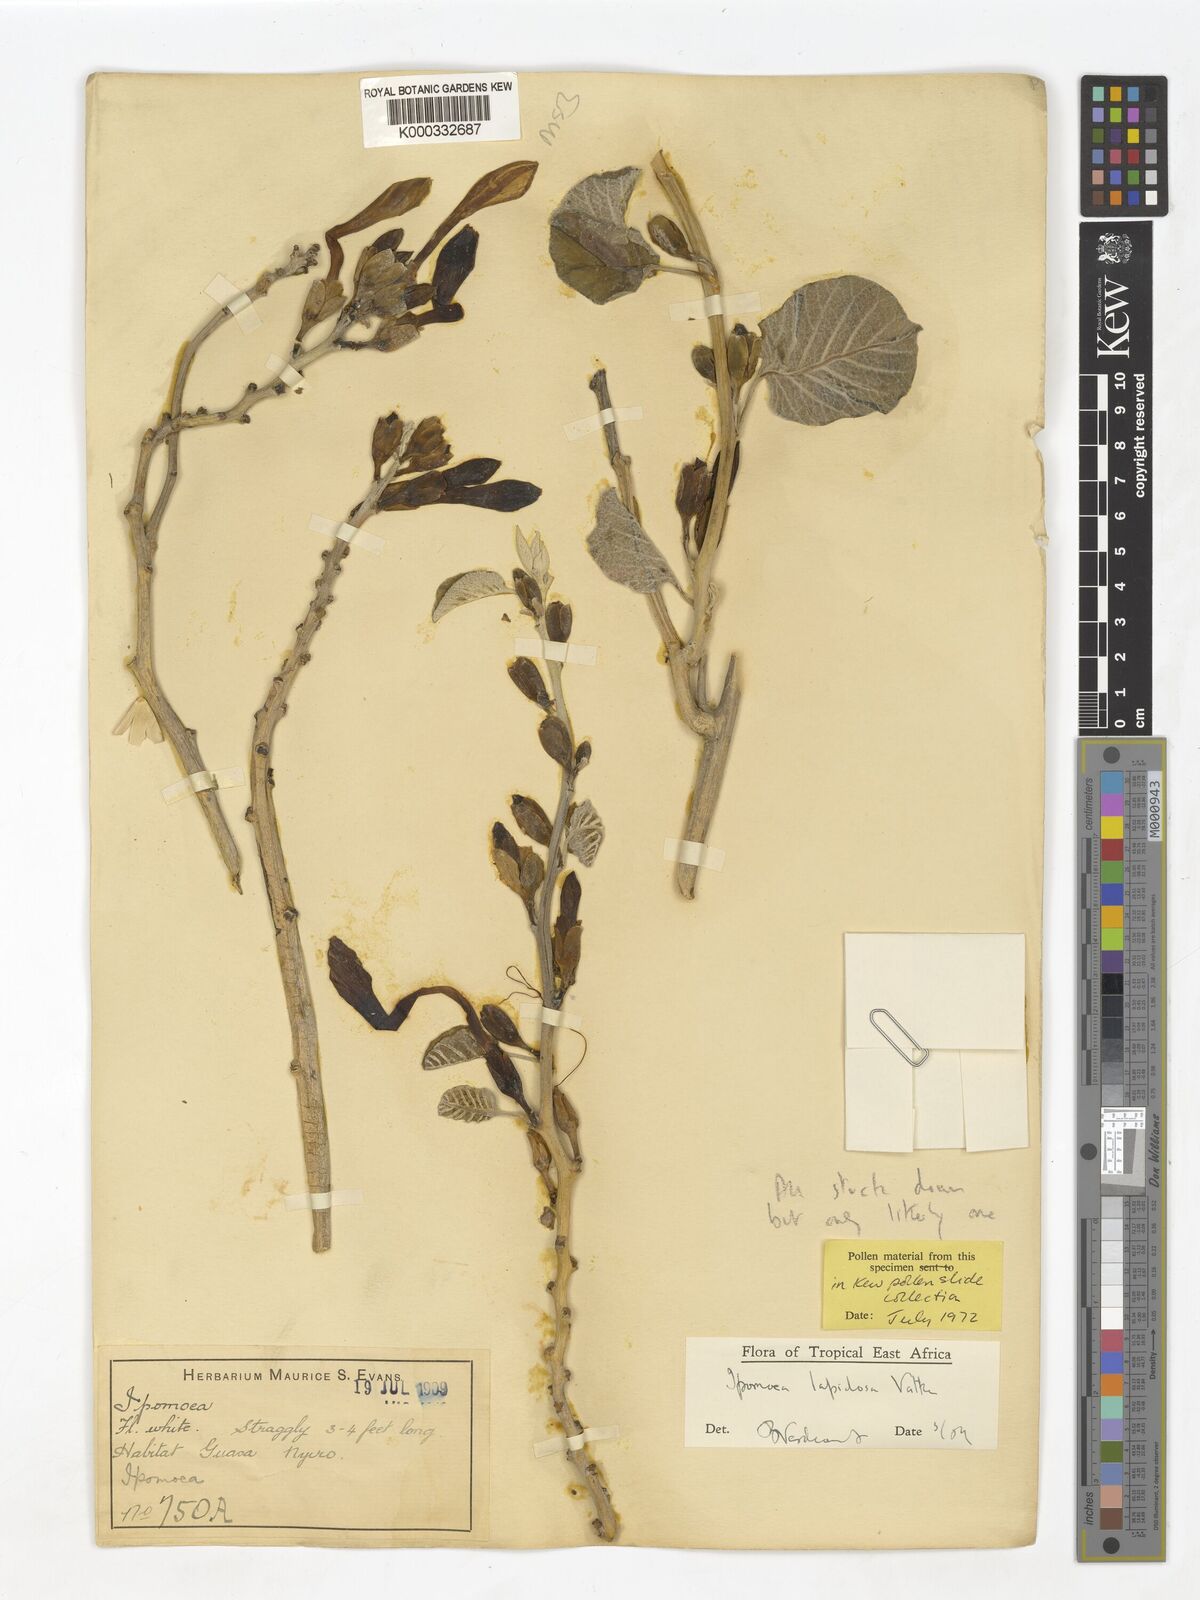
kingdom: Plantae
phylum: Tracheophyta
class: Magnoliopsida
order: Solanales
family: Convolvulaceae
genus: Ipomoea
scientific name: Ipomoea lapidosa
